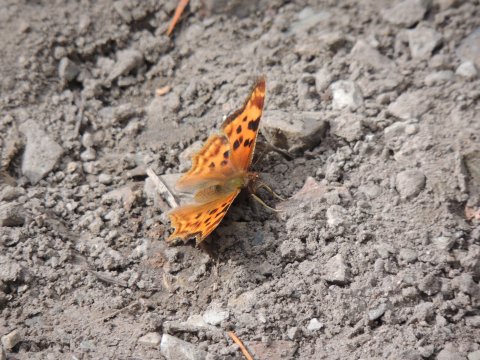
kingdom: Animalia
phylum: Arthropoda
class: Insecta
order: Lepidoptera
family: Nymphalidae
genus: Polygonia
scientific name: Polygonia satyrus
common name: Satyr Comma
